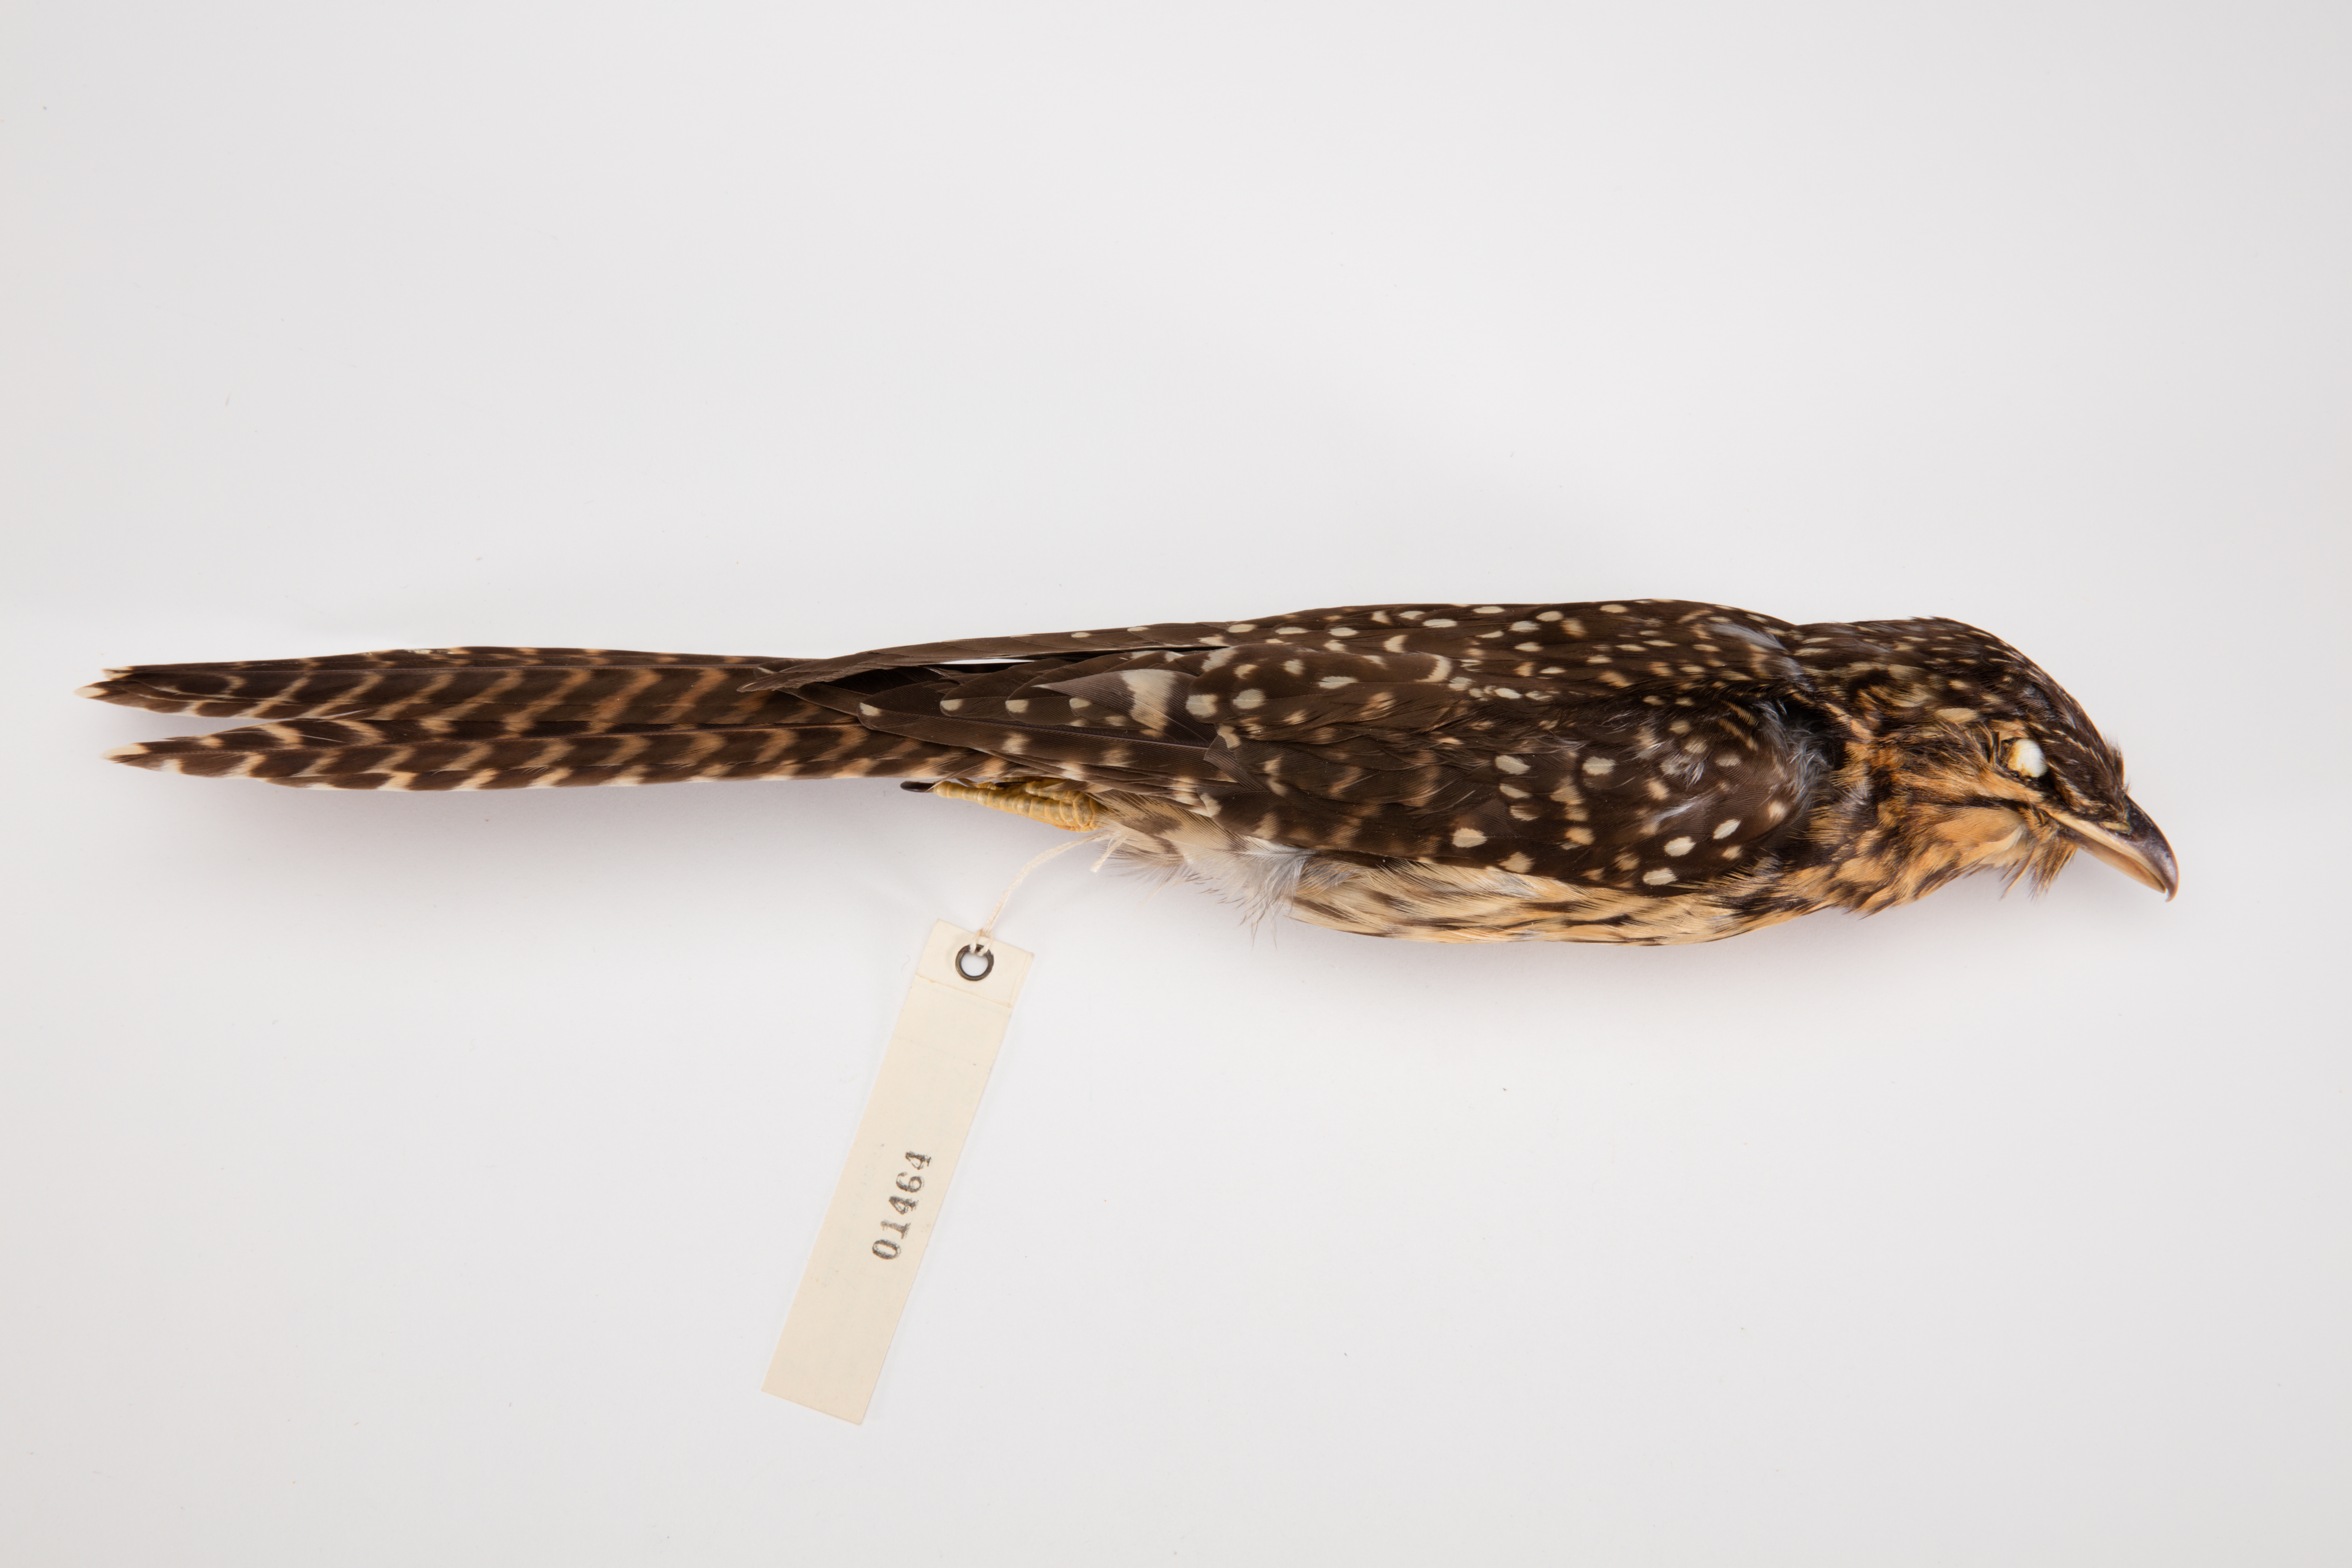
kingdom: Animalia
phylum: Chordata
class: Aves
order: Cuculiformes
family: Cuculidae
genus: Urodynamis
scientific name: Urodynamis taitensis
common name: Long-tailed koel
